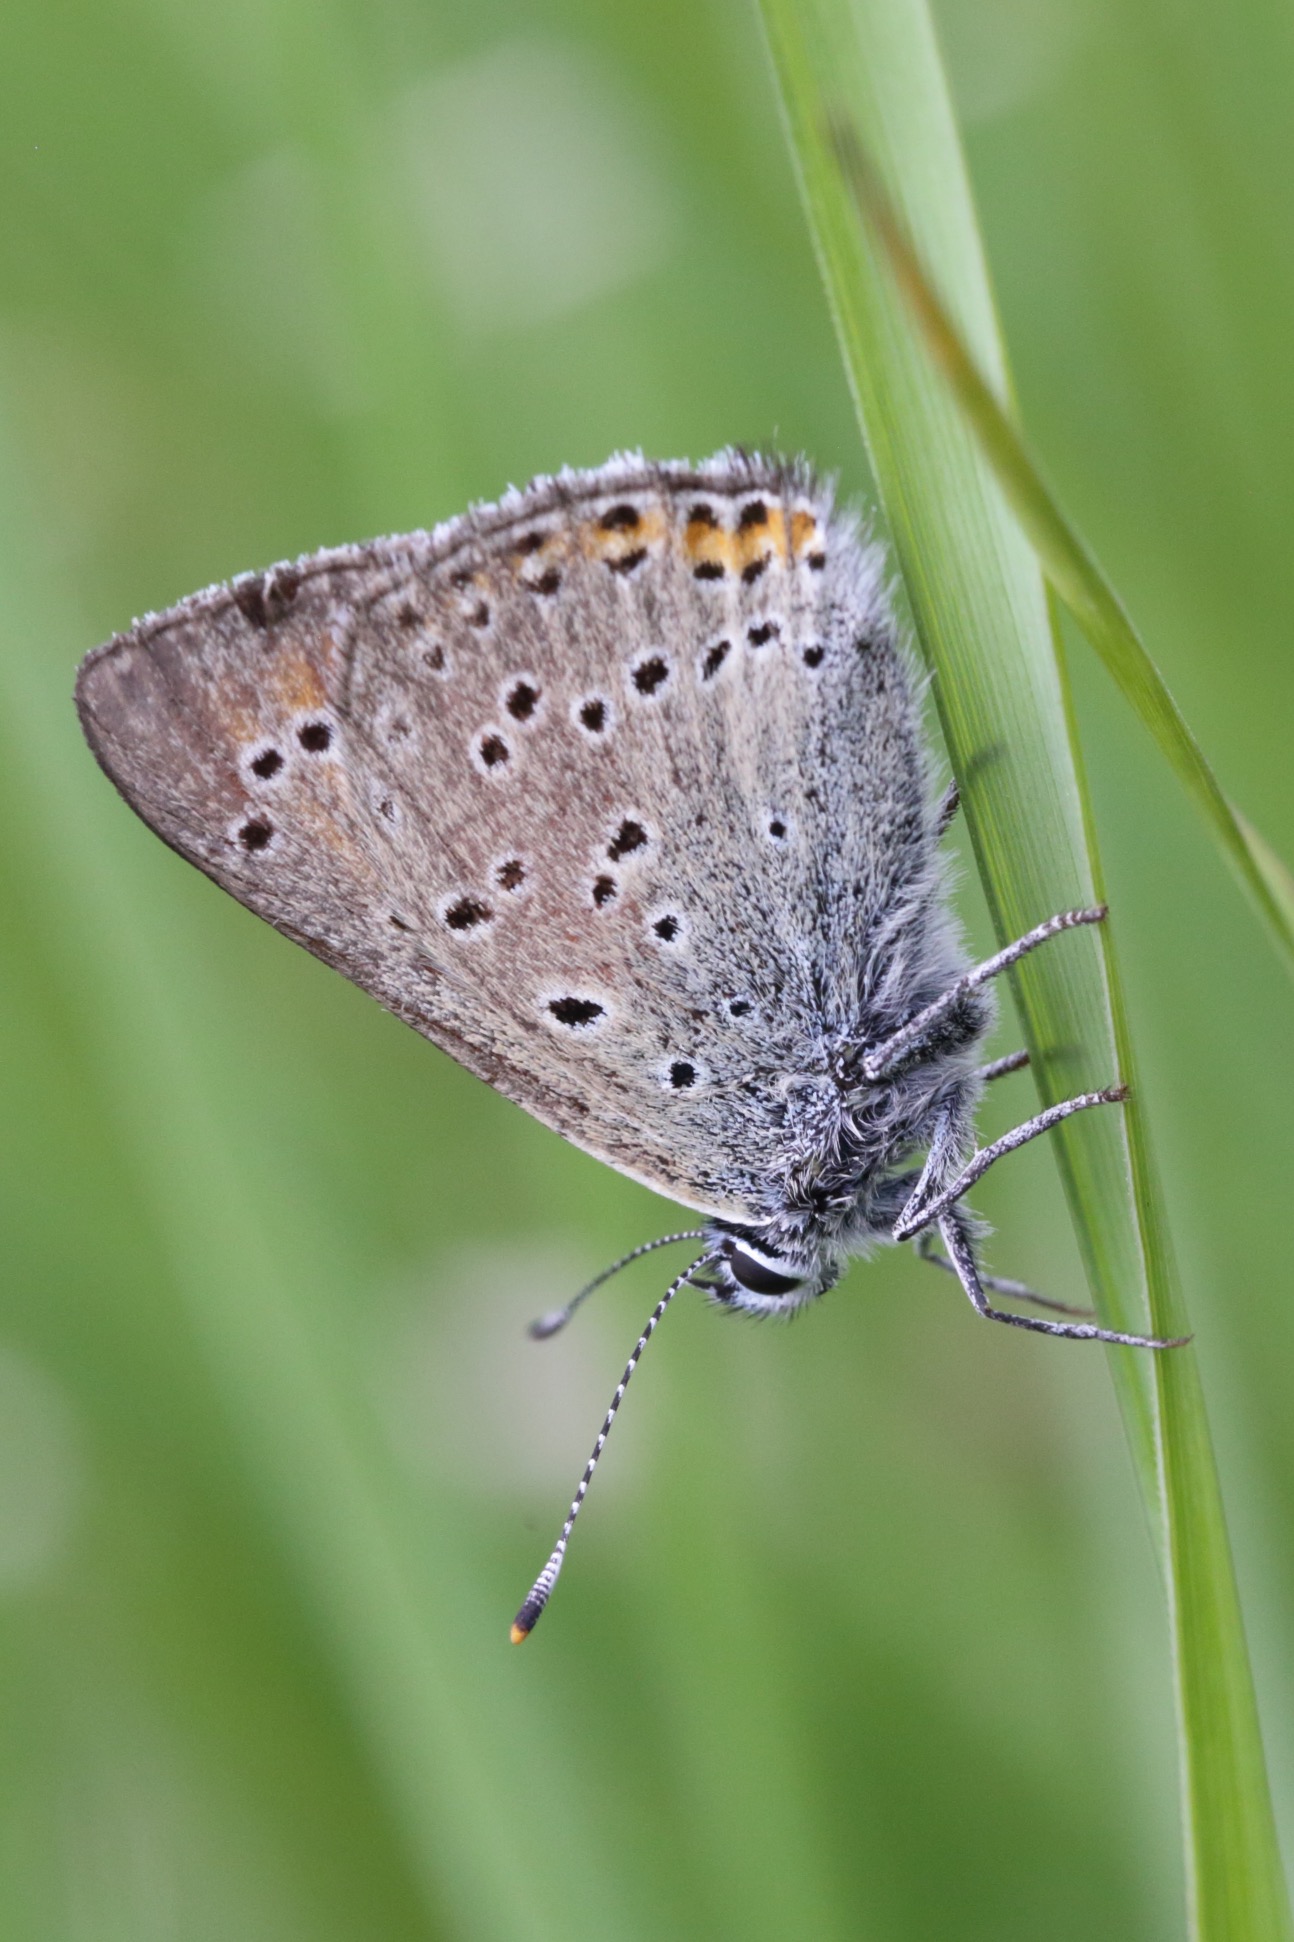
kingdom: Animalia
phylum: Arthropoda
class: Insecta
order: Lepidoptera
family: Lycaenidae
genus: Palaeochrysophanus
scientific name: Palaeochrysophanus hippothoe
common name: Violetrandet ildfugl
